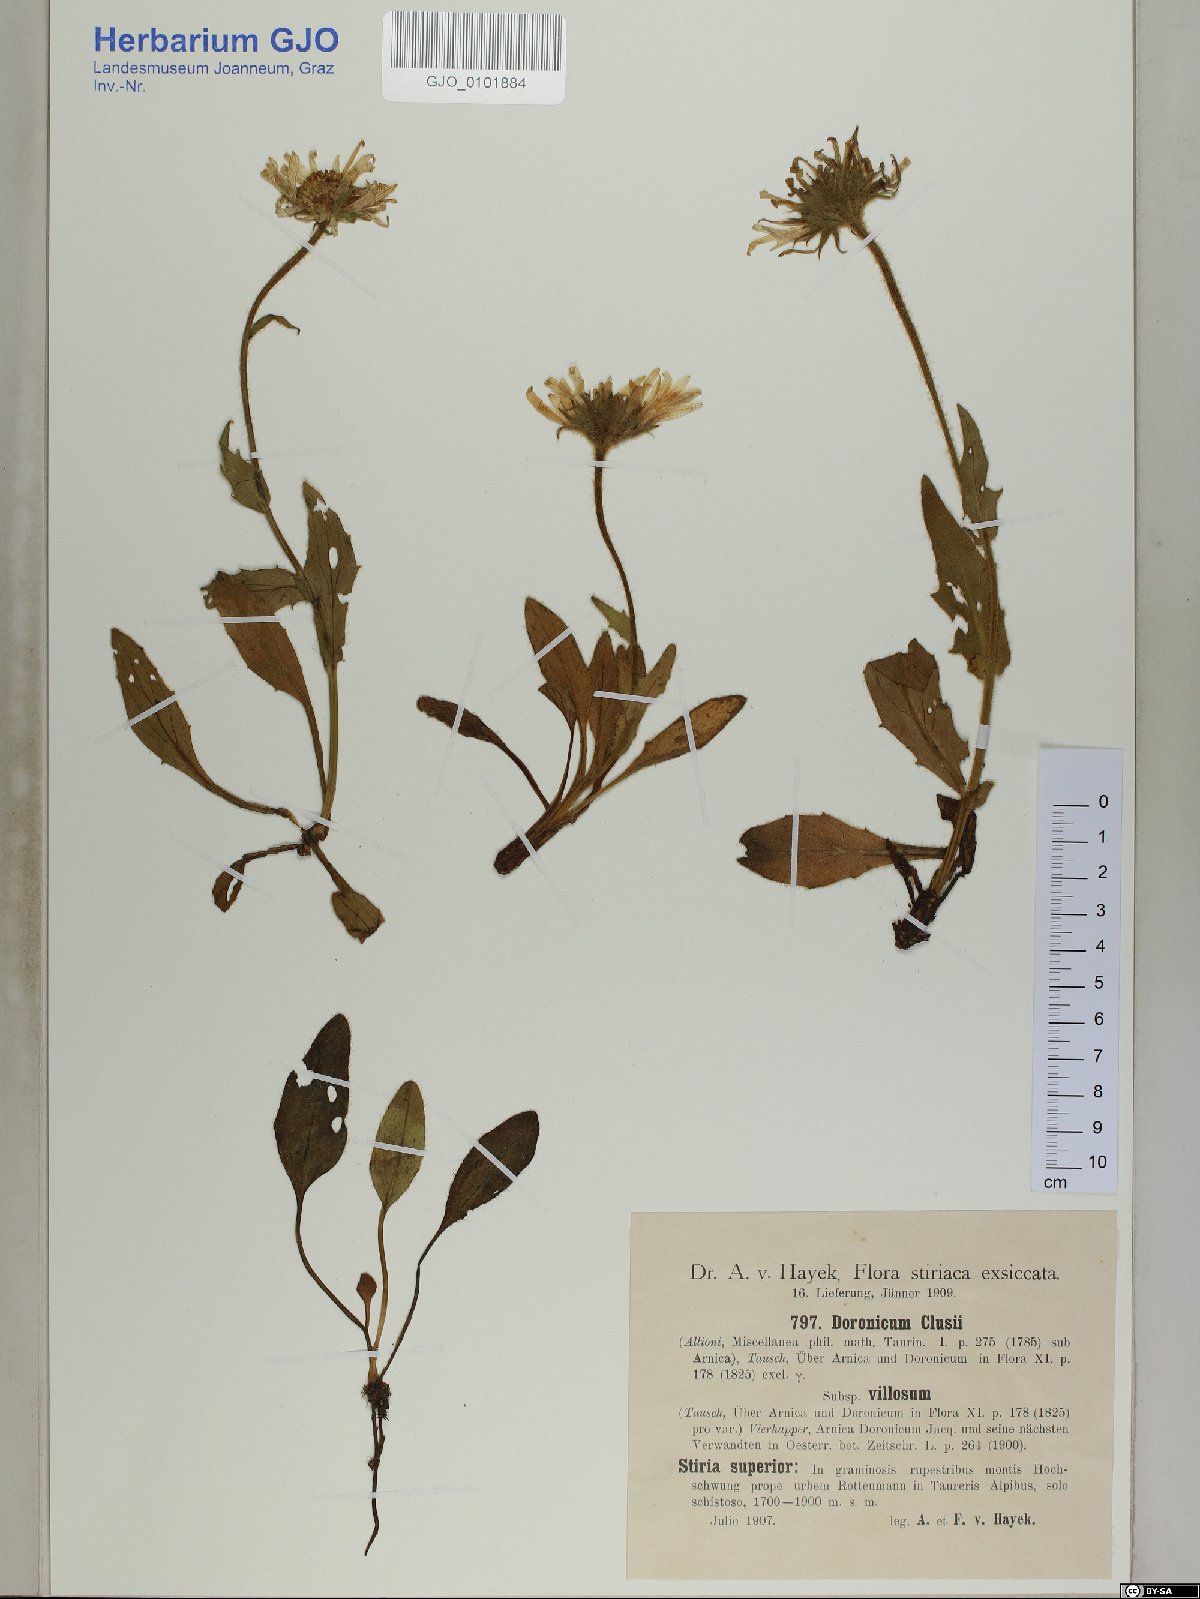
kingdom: Plantae
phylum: Tracheophyta
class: Magnoliopsida
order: Asterales
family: Asteraceae
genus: Doronicum
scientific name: Doronicum clusii
